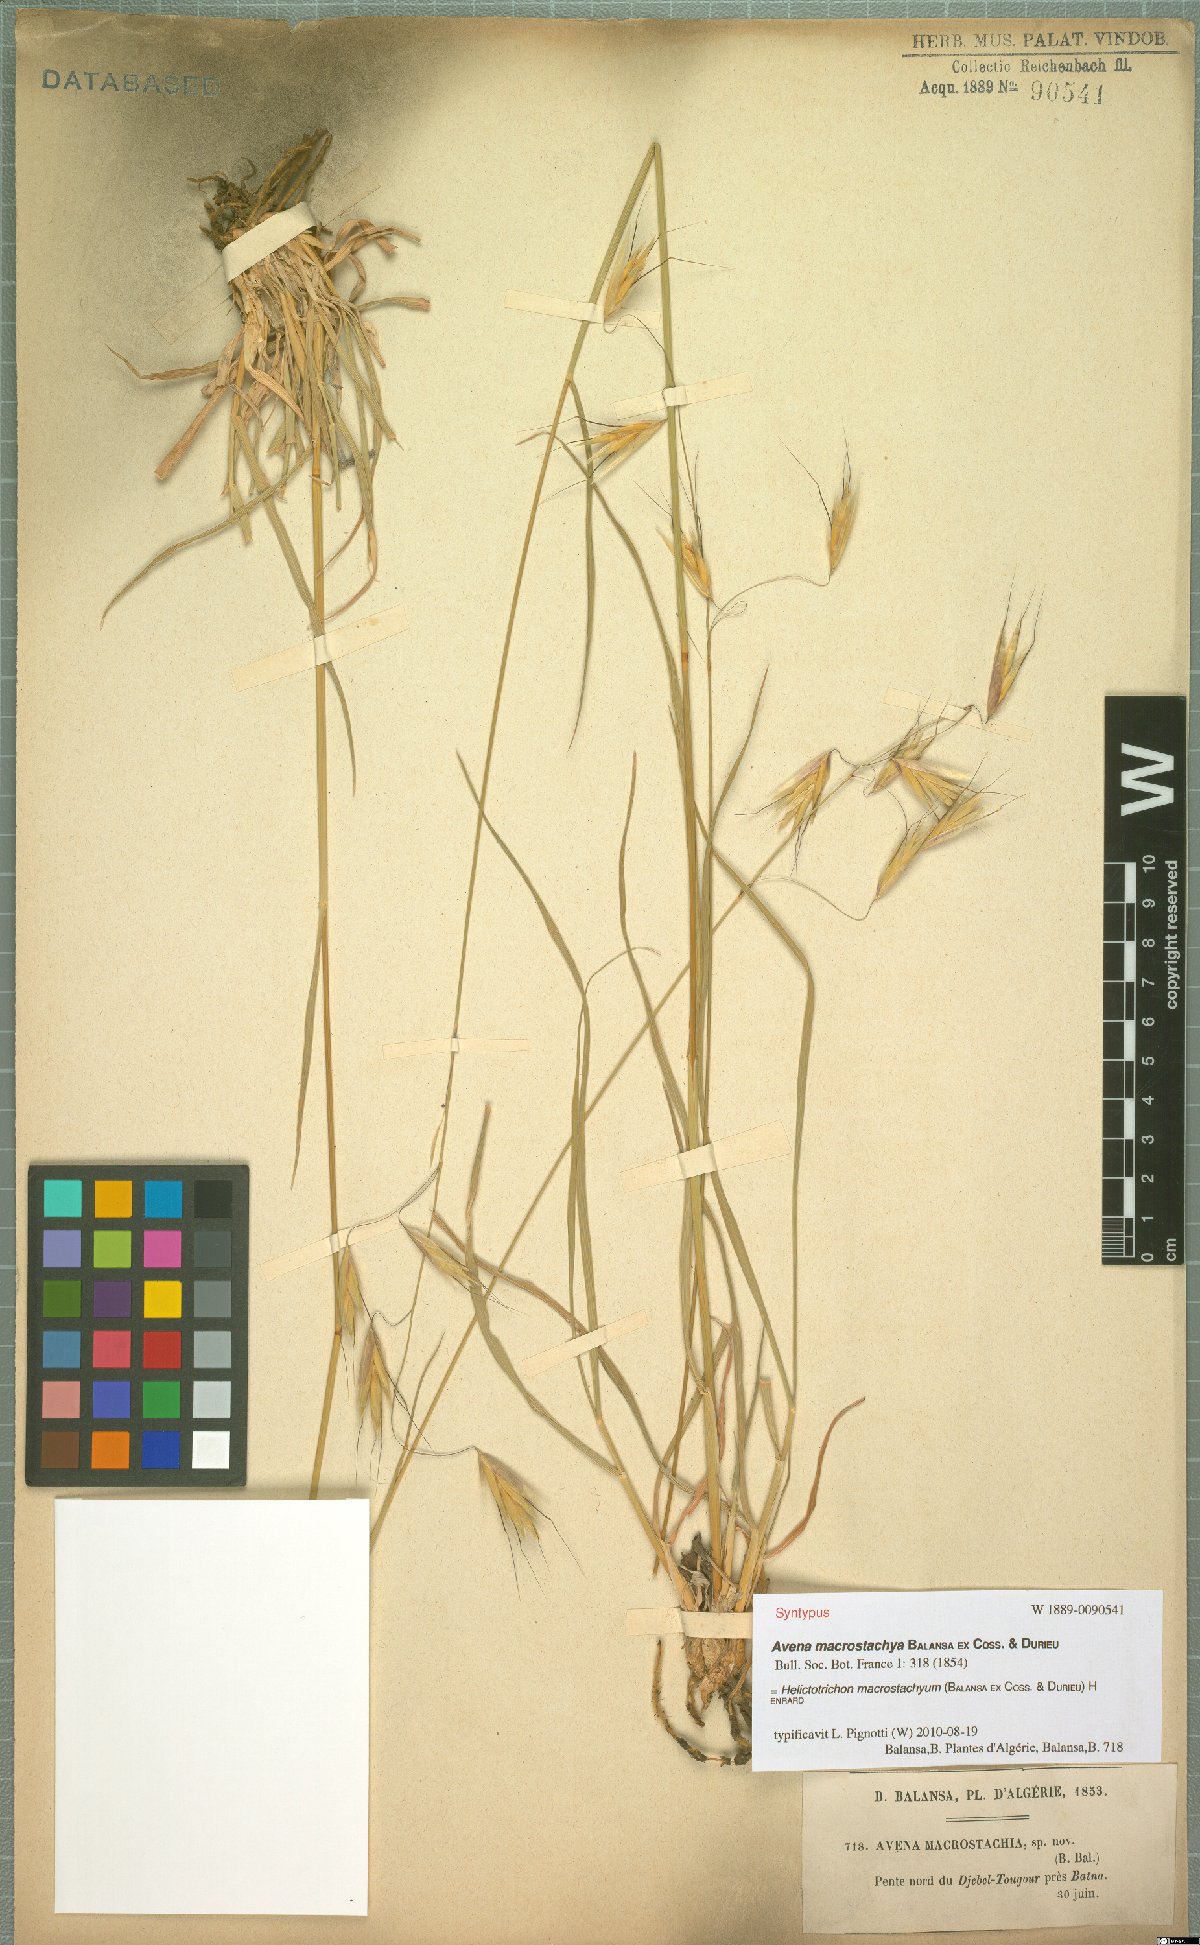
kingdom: Plantae
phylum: Tracheophyta
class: Liliopsida
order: Poales
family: Poaceae
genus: Helictotrichon
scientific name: Helictotrichon macrostachyum
